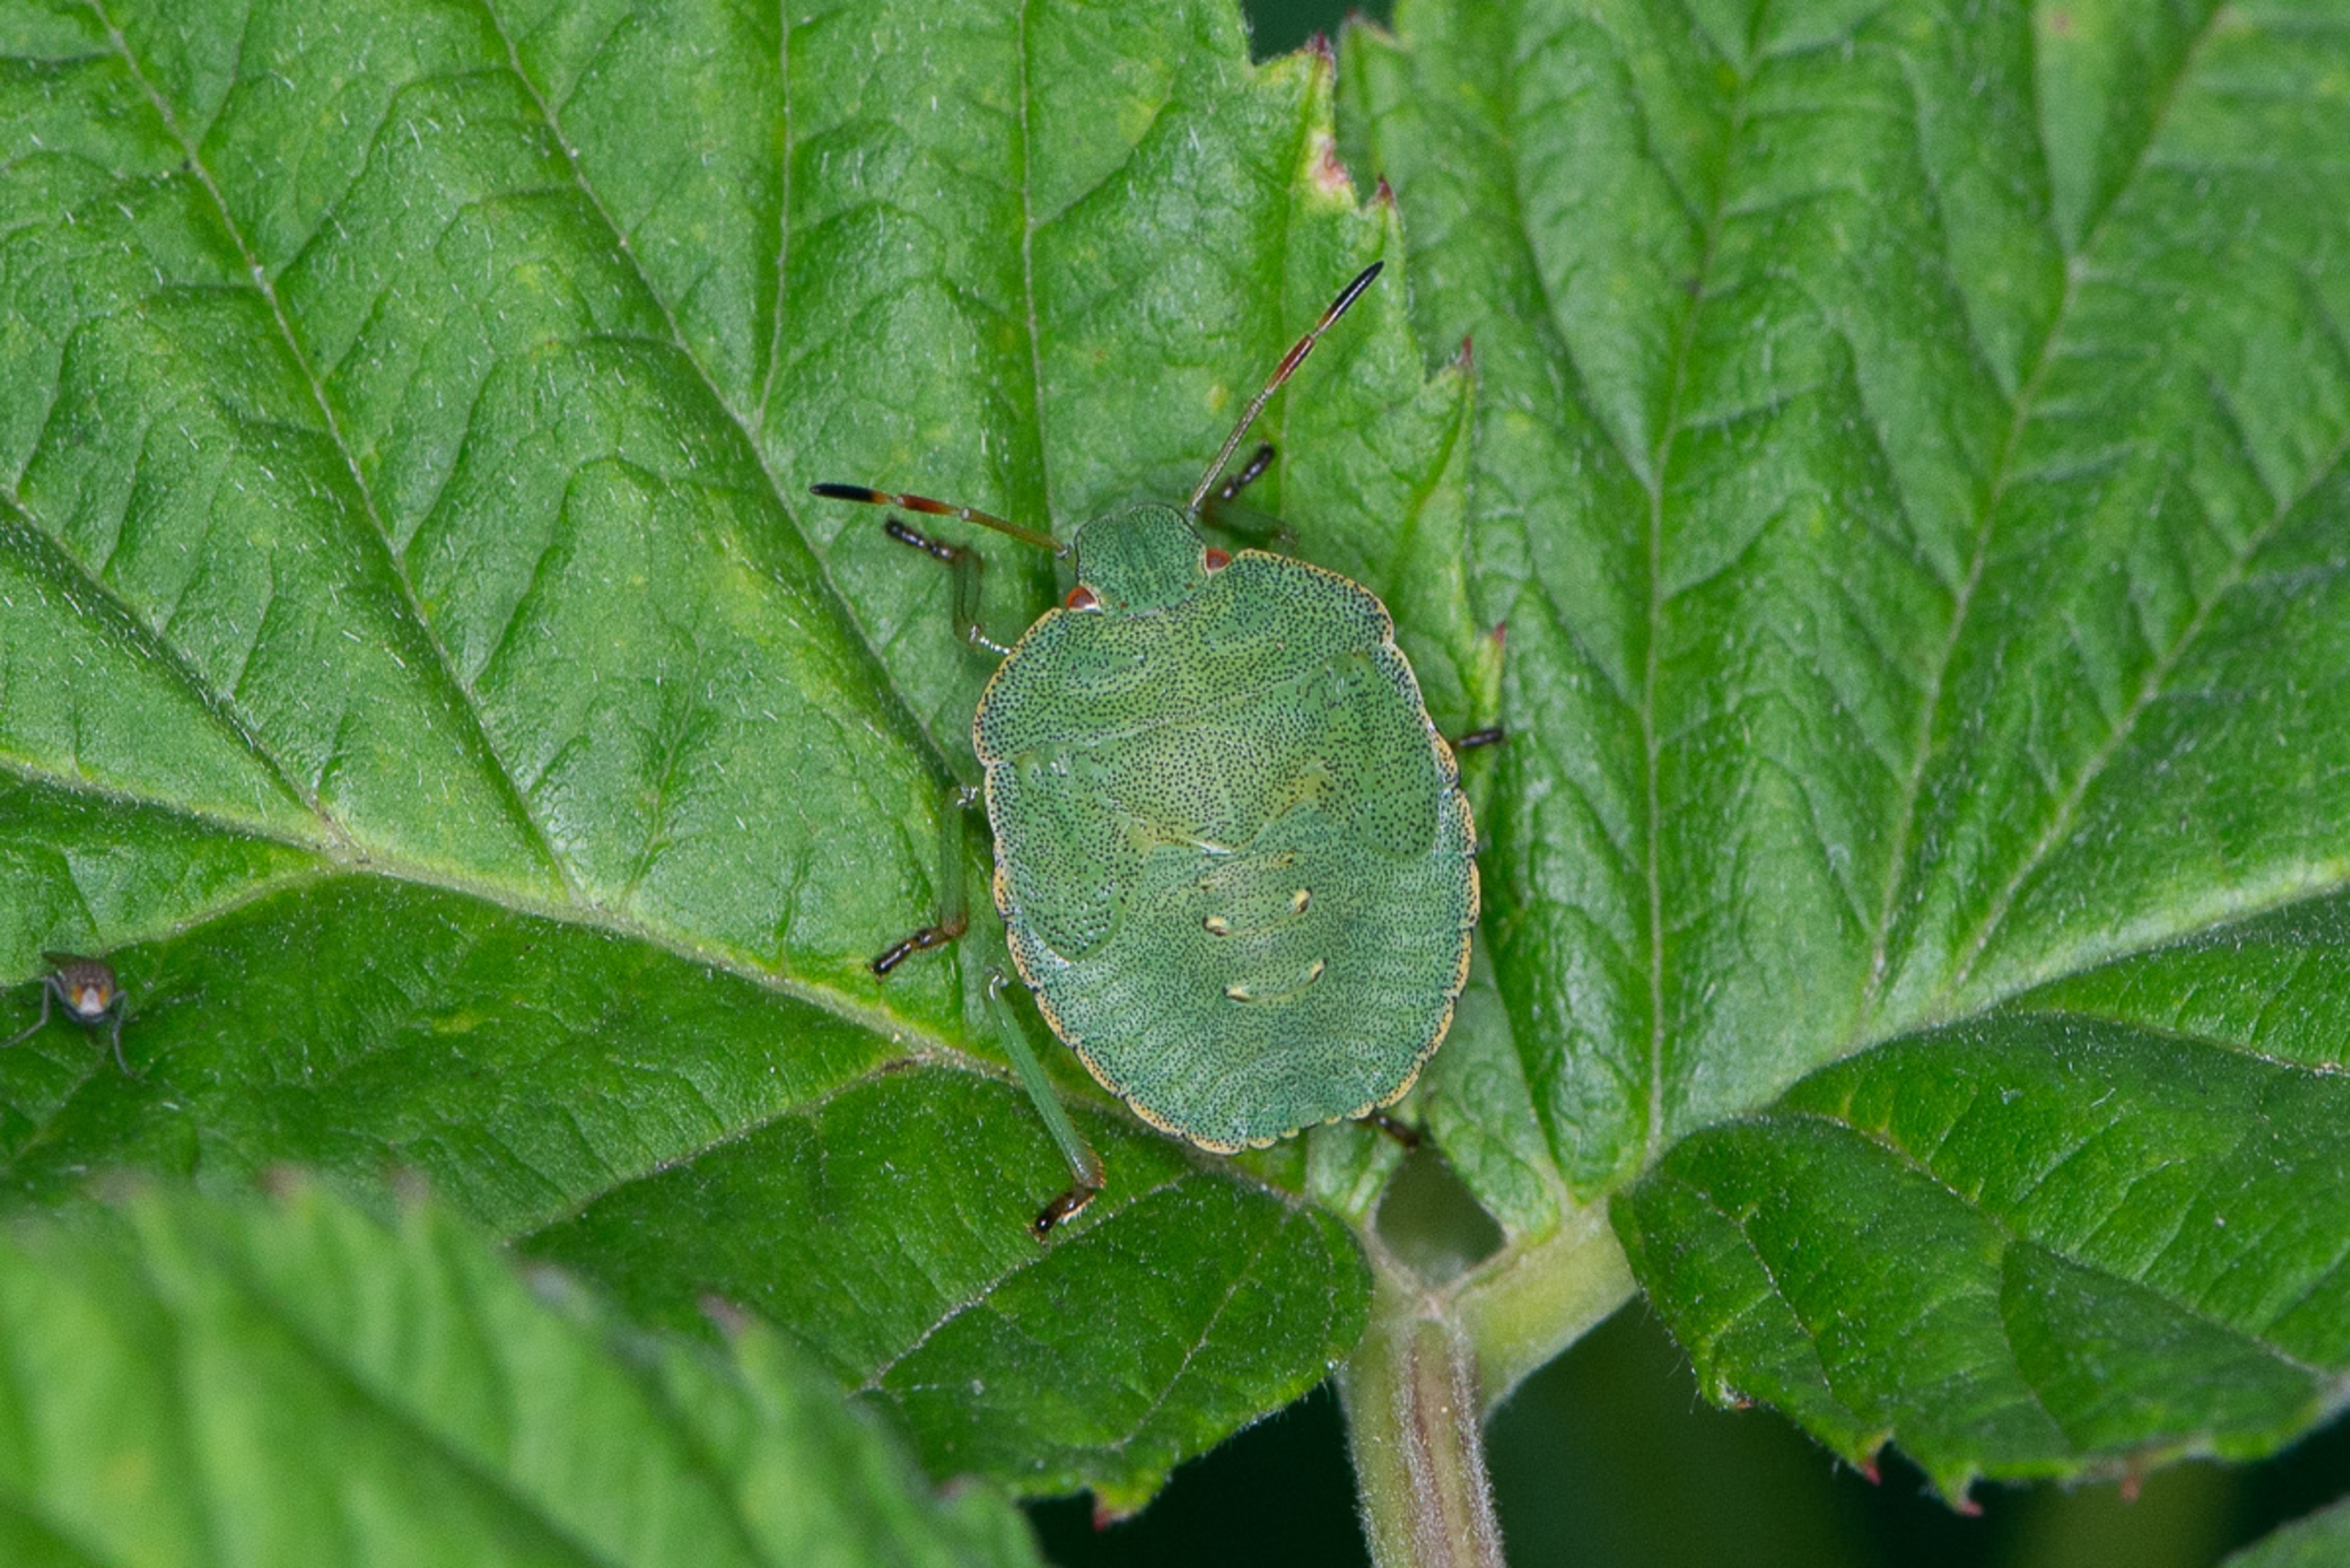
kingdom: Animalia
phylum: Arthropoda
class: Insecta
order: Hemiptera
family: Pentatomidae
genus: Palomena
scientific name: Palomena prasina
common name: Grøn bredtæge
